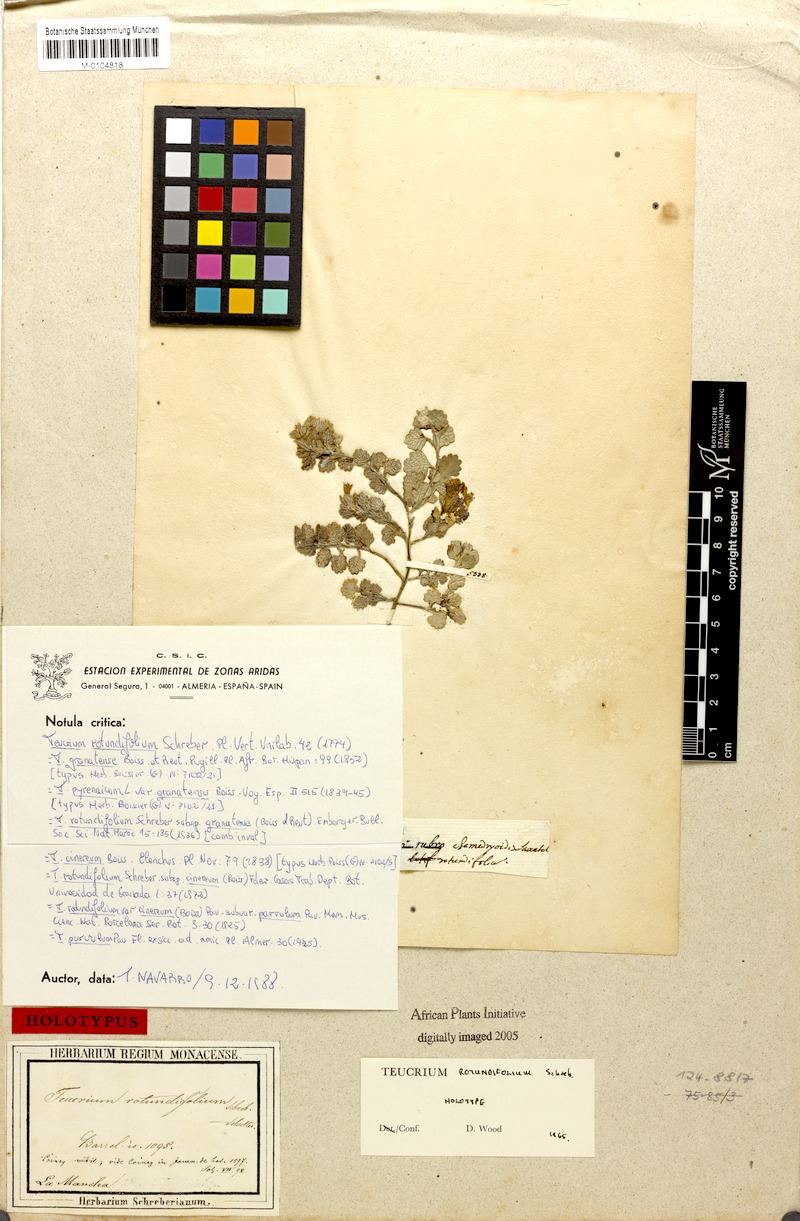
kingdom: Plantae
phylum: Tracheophyta
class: Magnoliopsida
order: Lamiales
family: Lamiaceae
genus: Teucrium
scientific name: Teucrium rotundifolium
